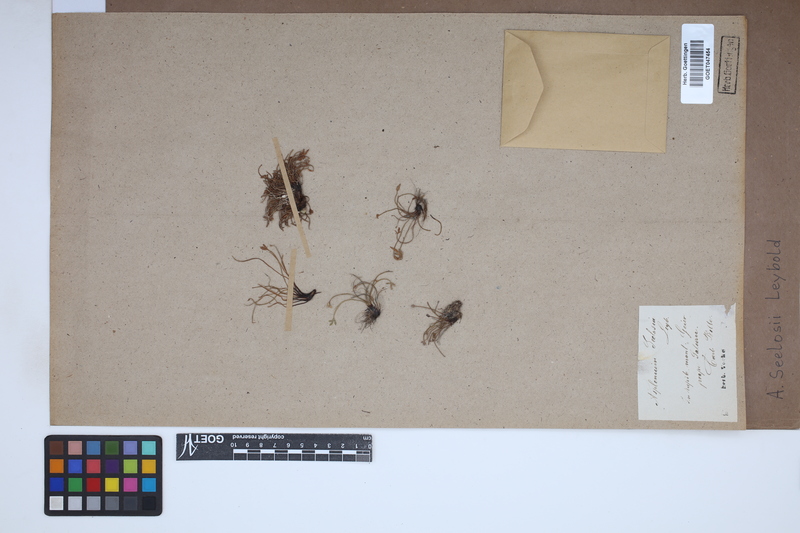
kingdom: Plantae
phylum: Tracheophyta
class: Polypodiopsida
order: Polypodiales
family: Aspleniaceae
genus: Asplenium
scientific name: Asplenium seelosii
